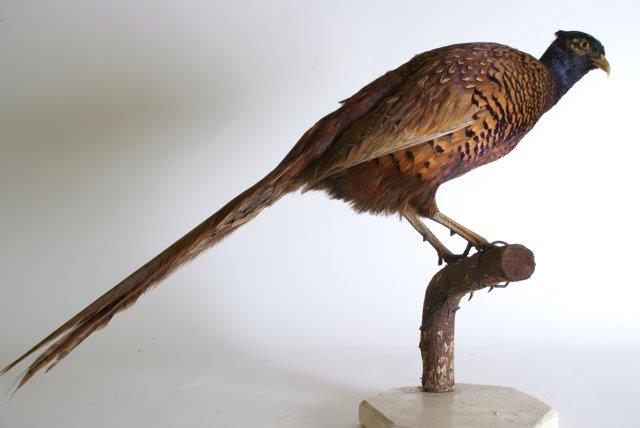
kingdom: Animalia
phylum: Chordata
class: Aves
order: Galliformes
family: Phasianidae
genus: Phasianus
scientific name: Phasianus colchicus
